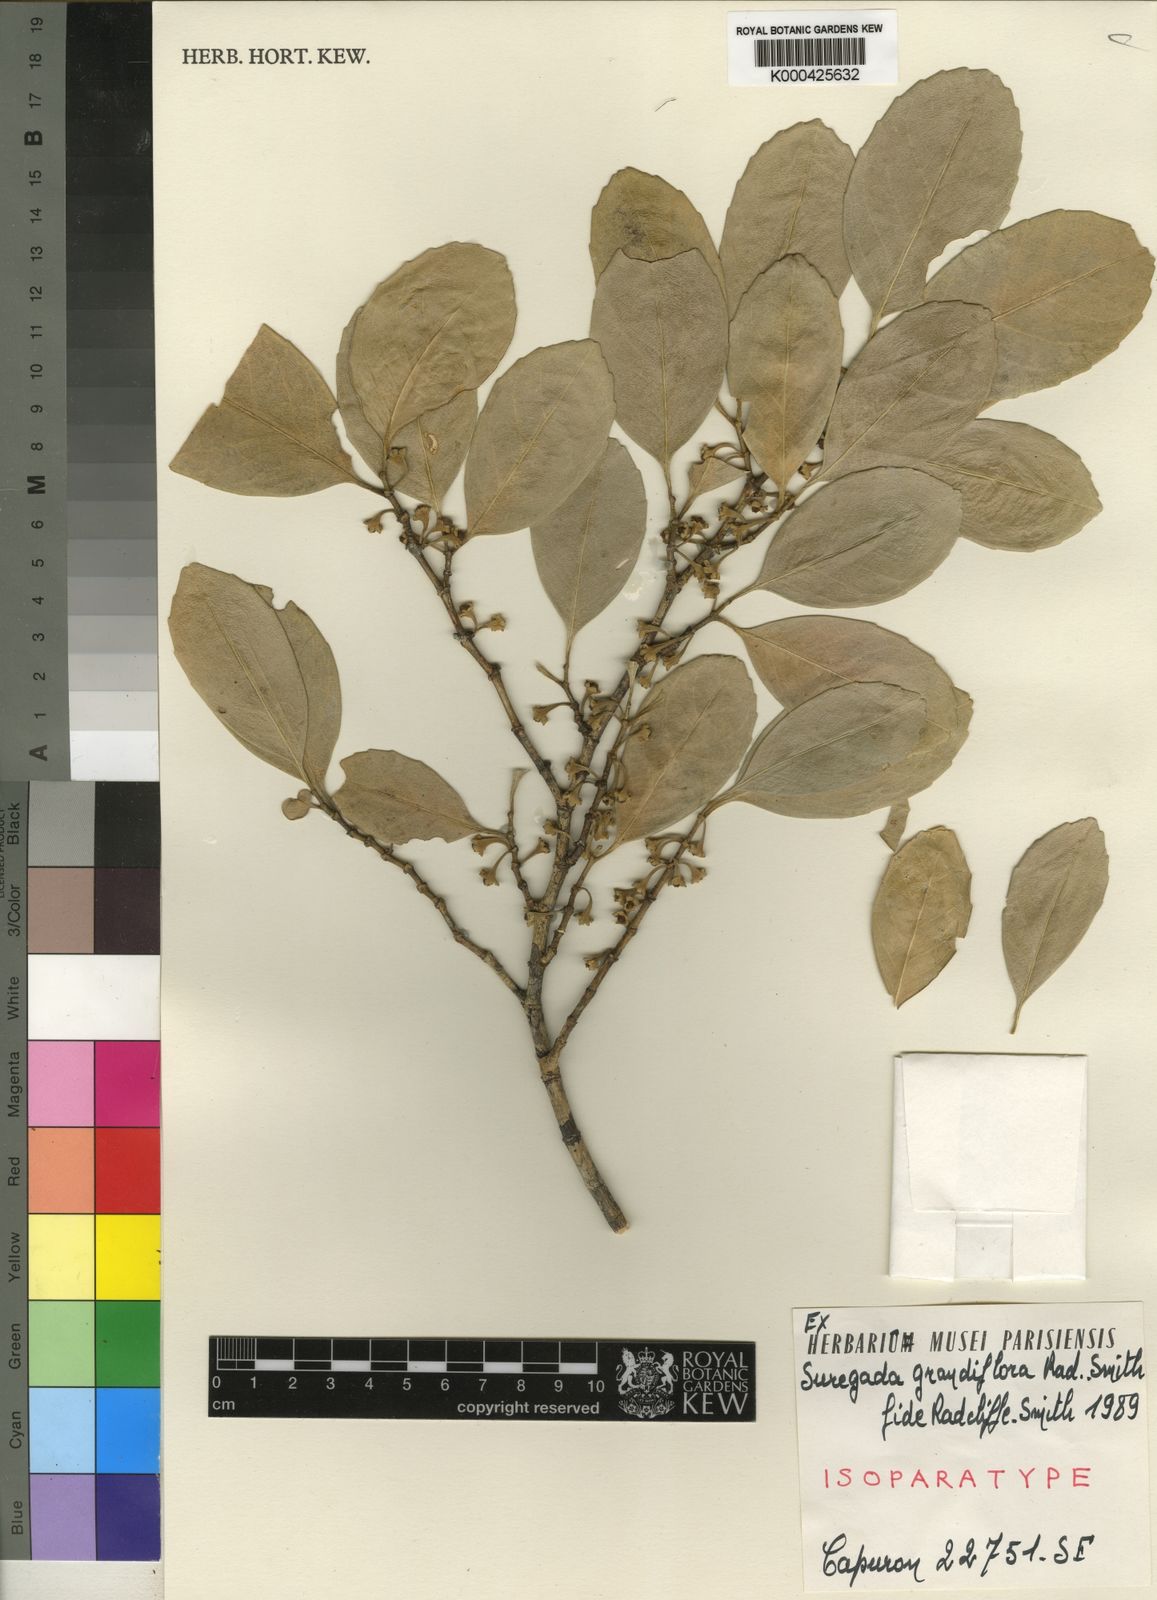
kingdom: Plantae
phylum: Tracheophyta
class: Magnoliopsida
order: Malpighiales
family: Euphorbiaceae
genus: Suregada
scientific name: Suregada grandiflora
